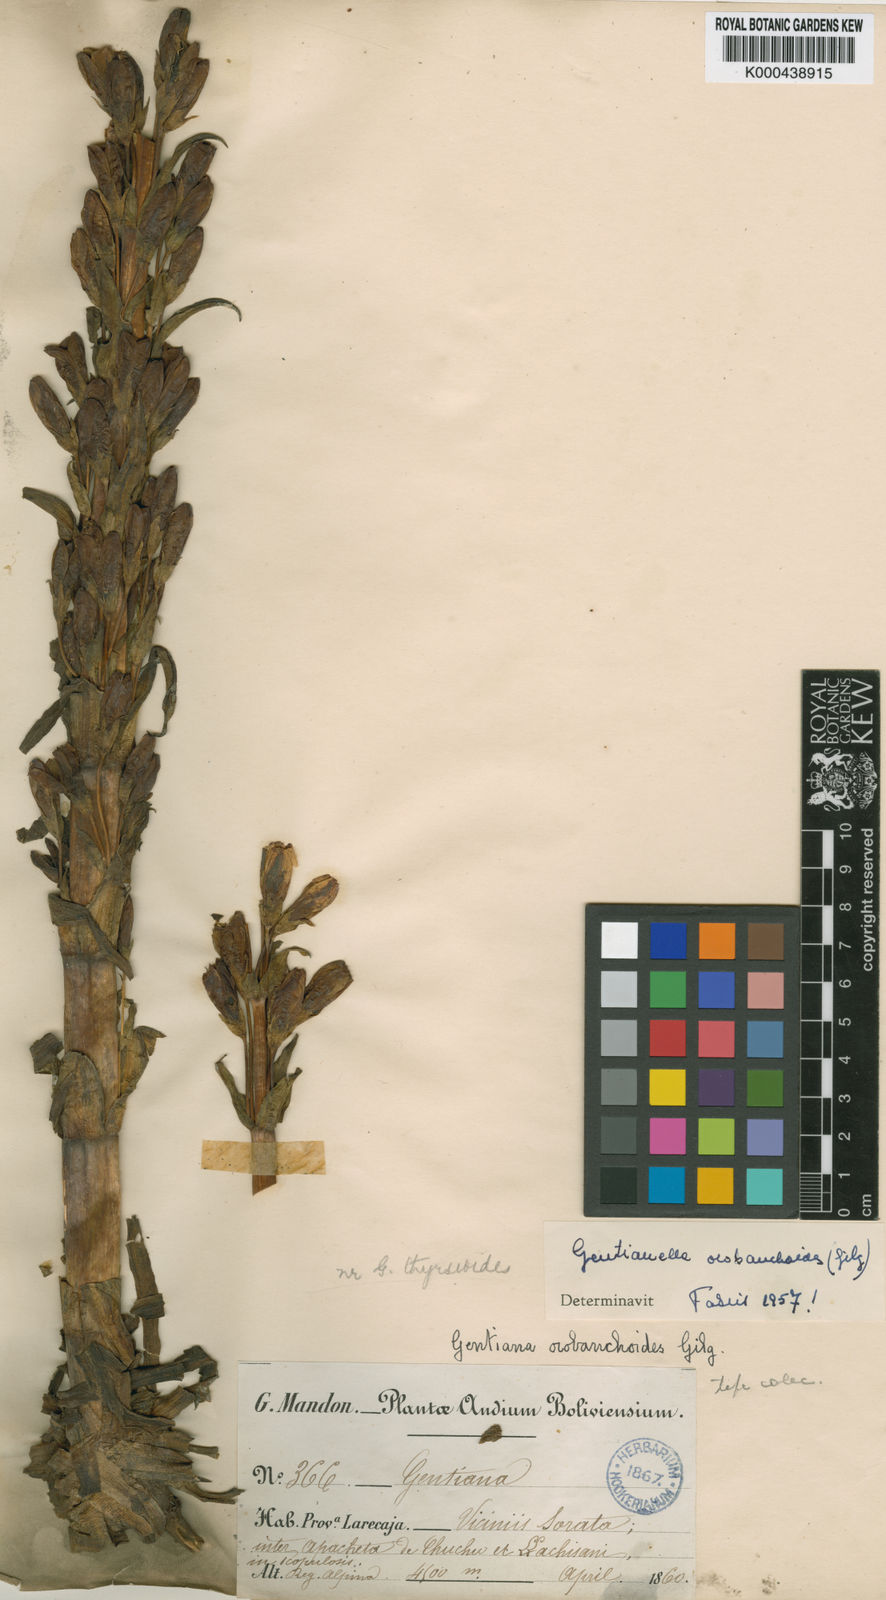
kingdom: Plantae
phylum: Tracheophyta
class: Magnoliopsida
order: Gentianales
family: Gentianaceae
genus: Gentianella
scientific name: Gentianella punicea
